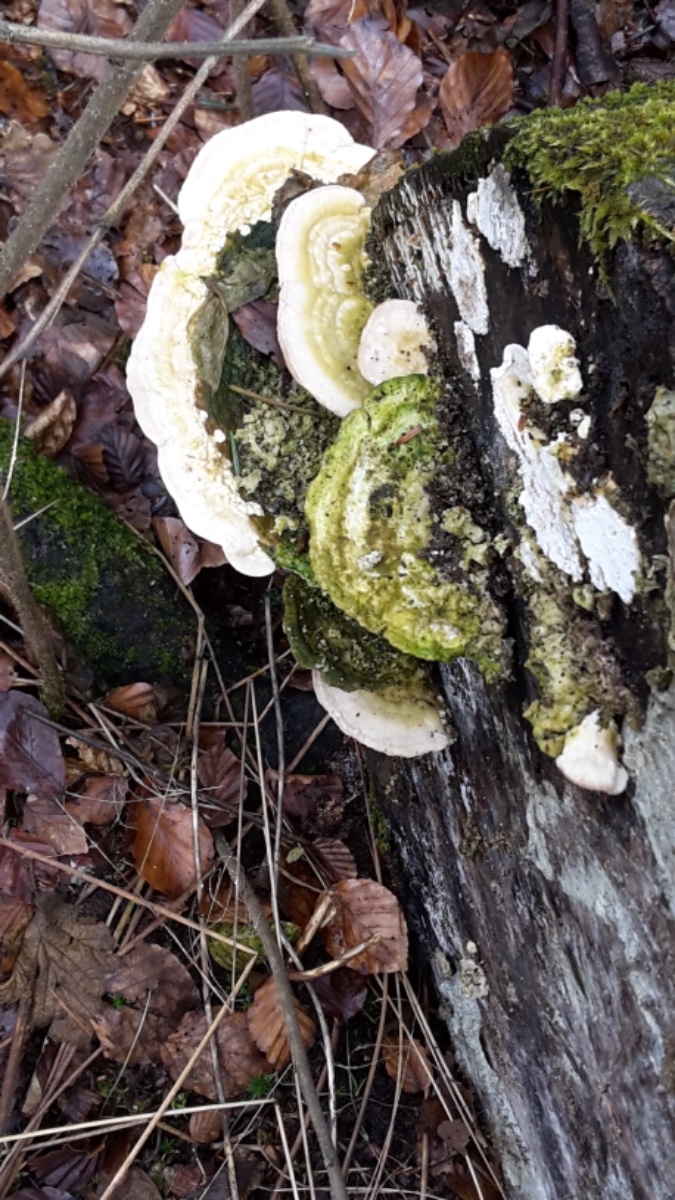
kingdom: Fungi
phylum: Basidiomycota
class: Agaricomycetes
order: Polyporales
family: Polyporaceae
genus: Trametes
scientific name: Trametes gibbosa
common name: puklet læderporesvamp
